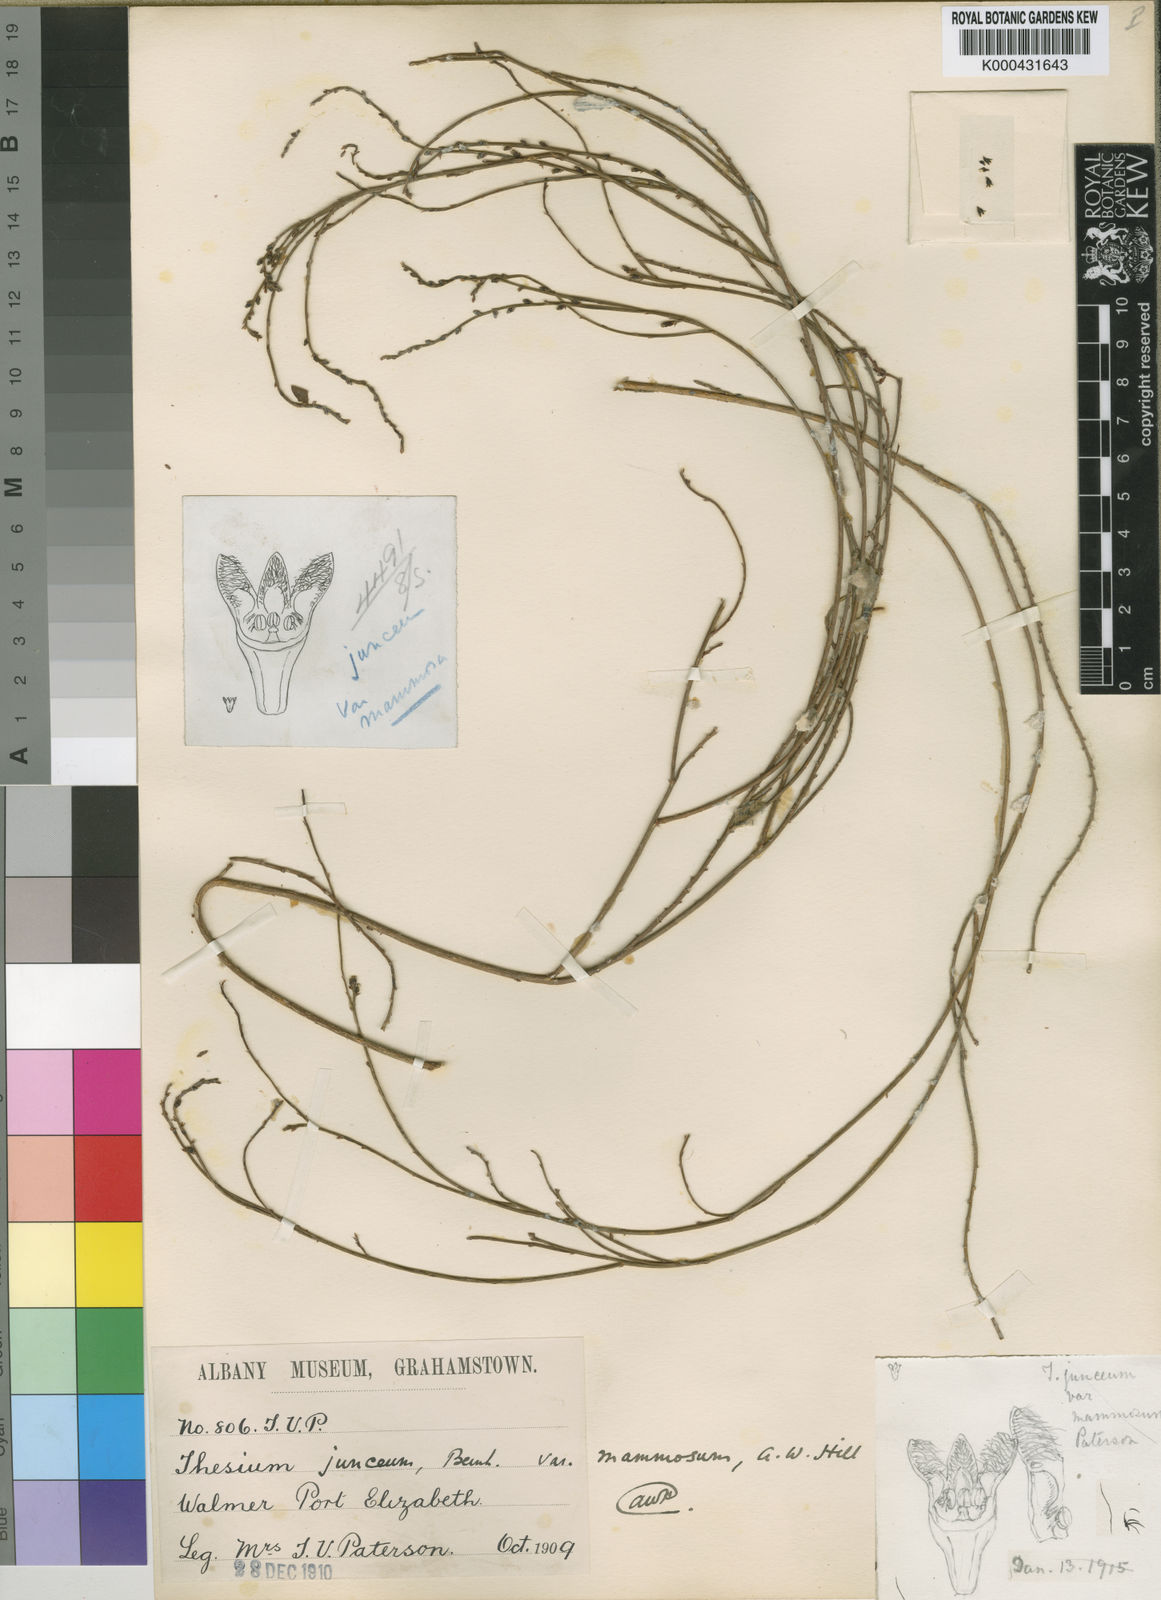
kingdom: Plantae
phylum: Tracheophyta
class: Magnoliopsida
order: Santalales
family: Thesiaceae
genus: Thesium
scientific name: Thesium
